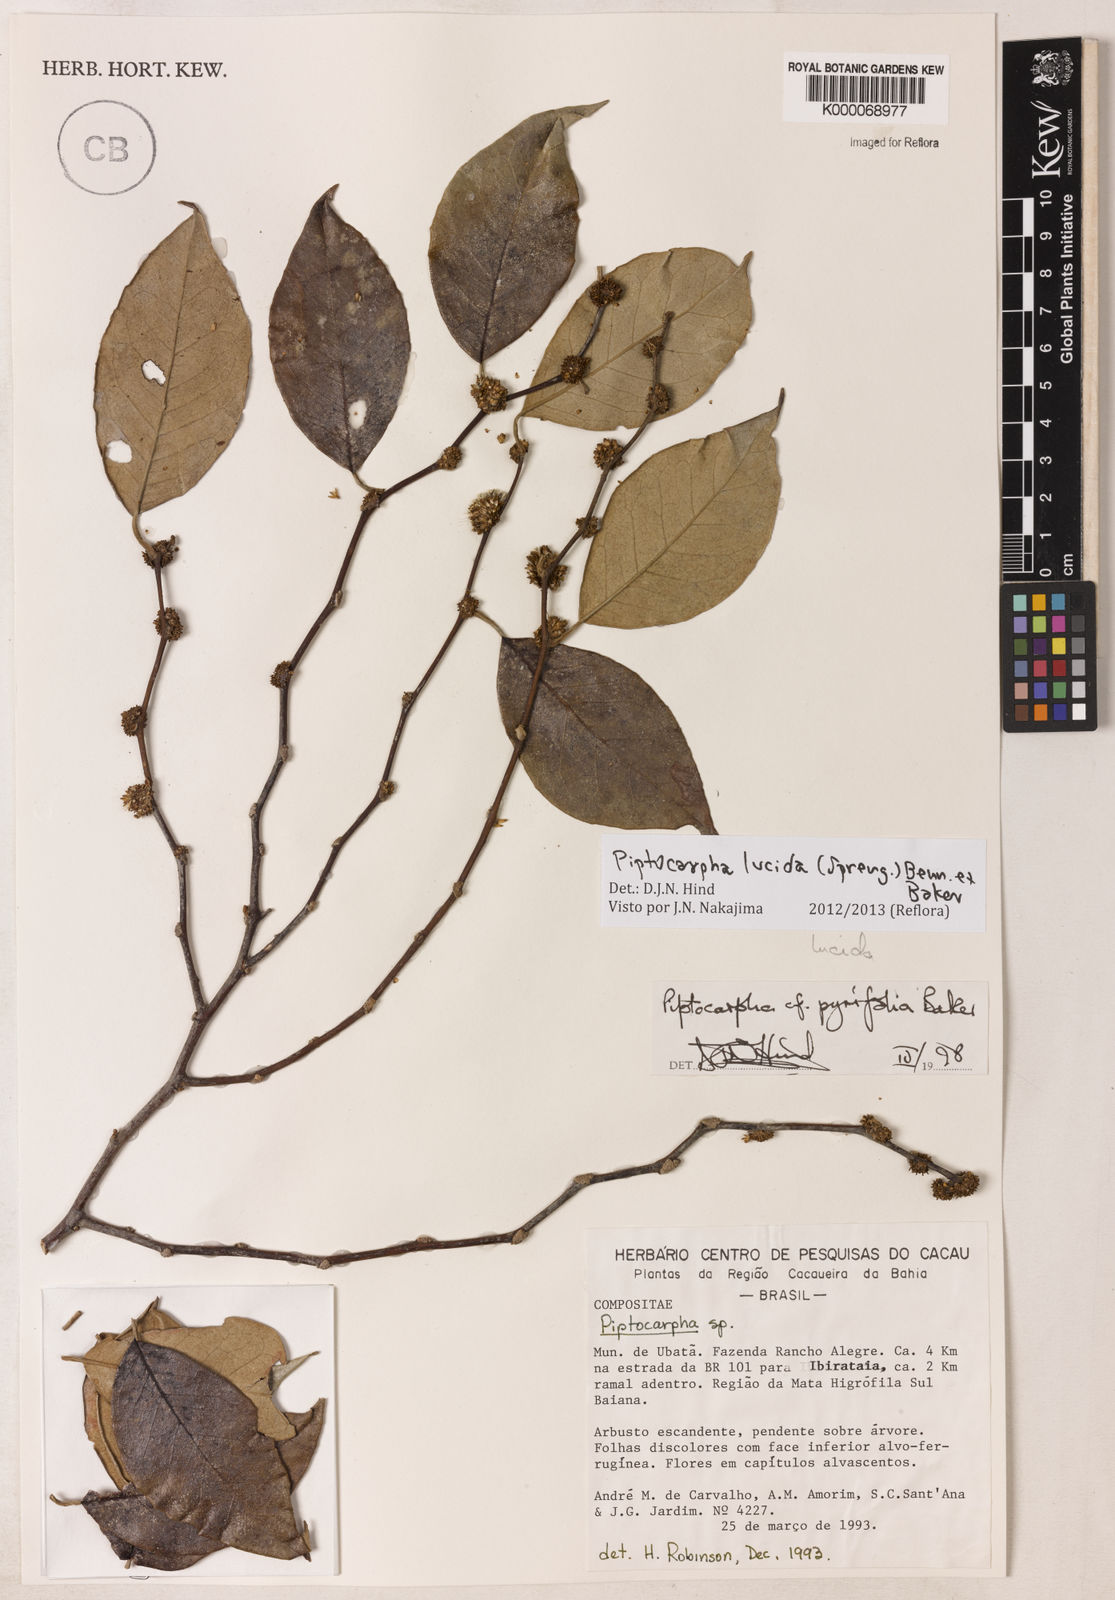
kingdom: Plantae
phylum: Tracheophyta
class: Magnoliopsida
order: Asterales
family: Asteraceae
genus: Piptocarpha
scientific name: Piptocarpha pyrifolia
